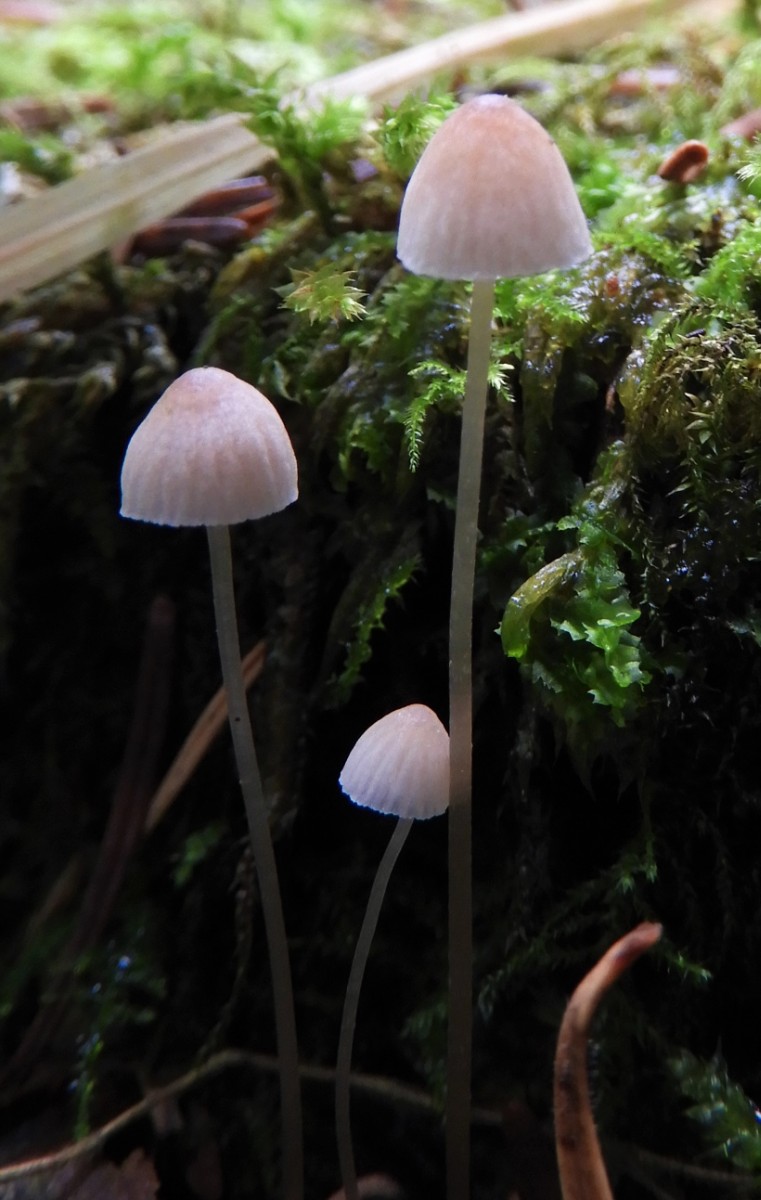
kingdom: Fungi
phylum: Basidiomycota
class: Agaricomycetes
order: Agaricales
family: Mycenaceae
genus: Mycena
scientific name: Mycena metata
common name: rødlig huesvamp
